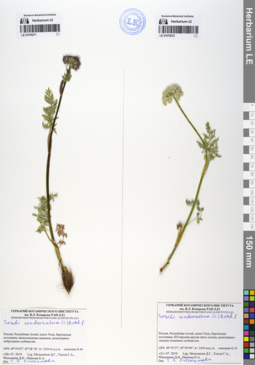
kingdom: Plantae
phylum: Tracheophyta
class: Magnoliopsida
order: Apiales
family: Apiaceae
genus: Seseli
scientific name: Seseli condensatum
